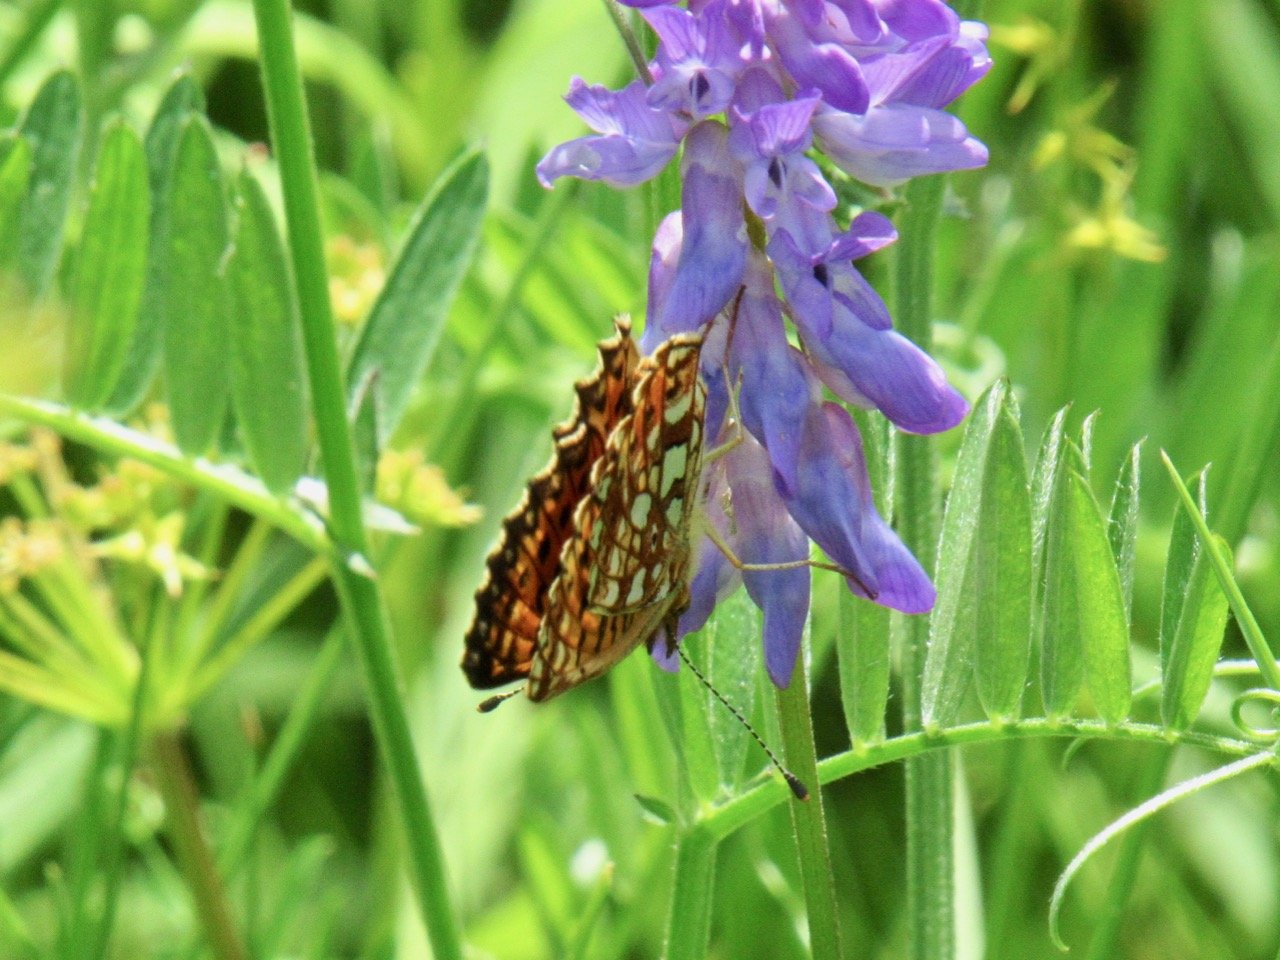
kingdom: Animalia
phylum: Arthropoda
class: Insecta
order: Lepidoptera
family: Nymphalidae
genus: Boloria
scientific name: Boloria selene
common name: Silver-bordered Fritillary
